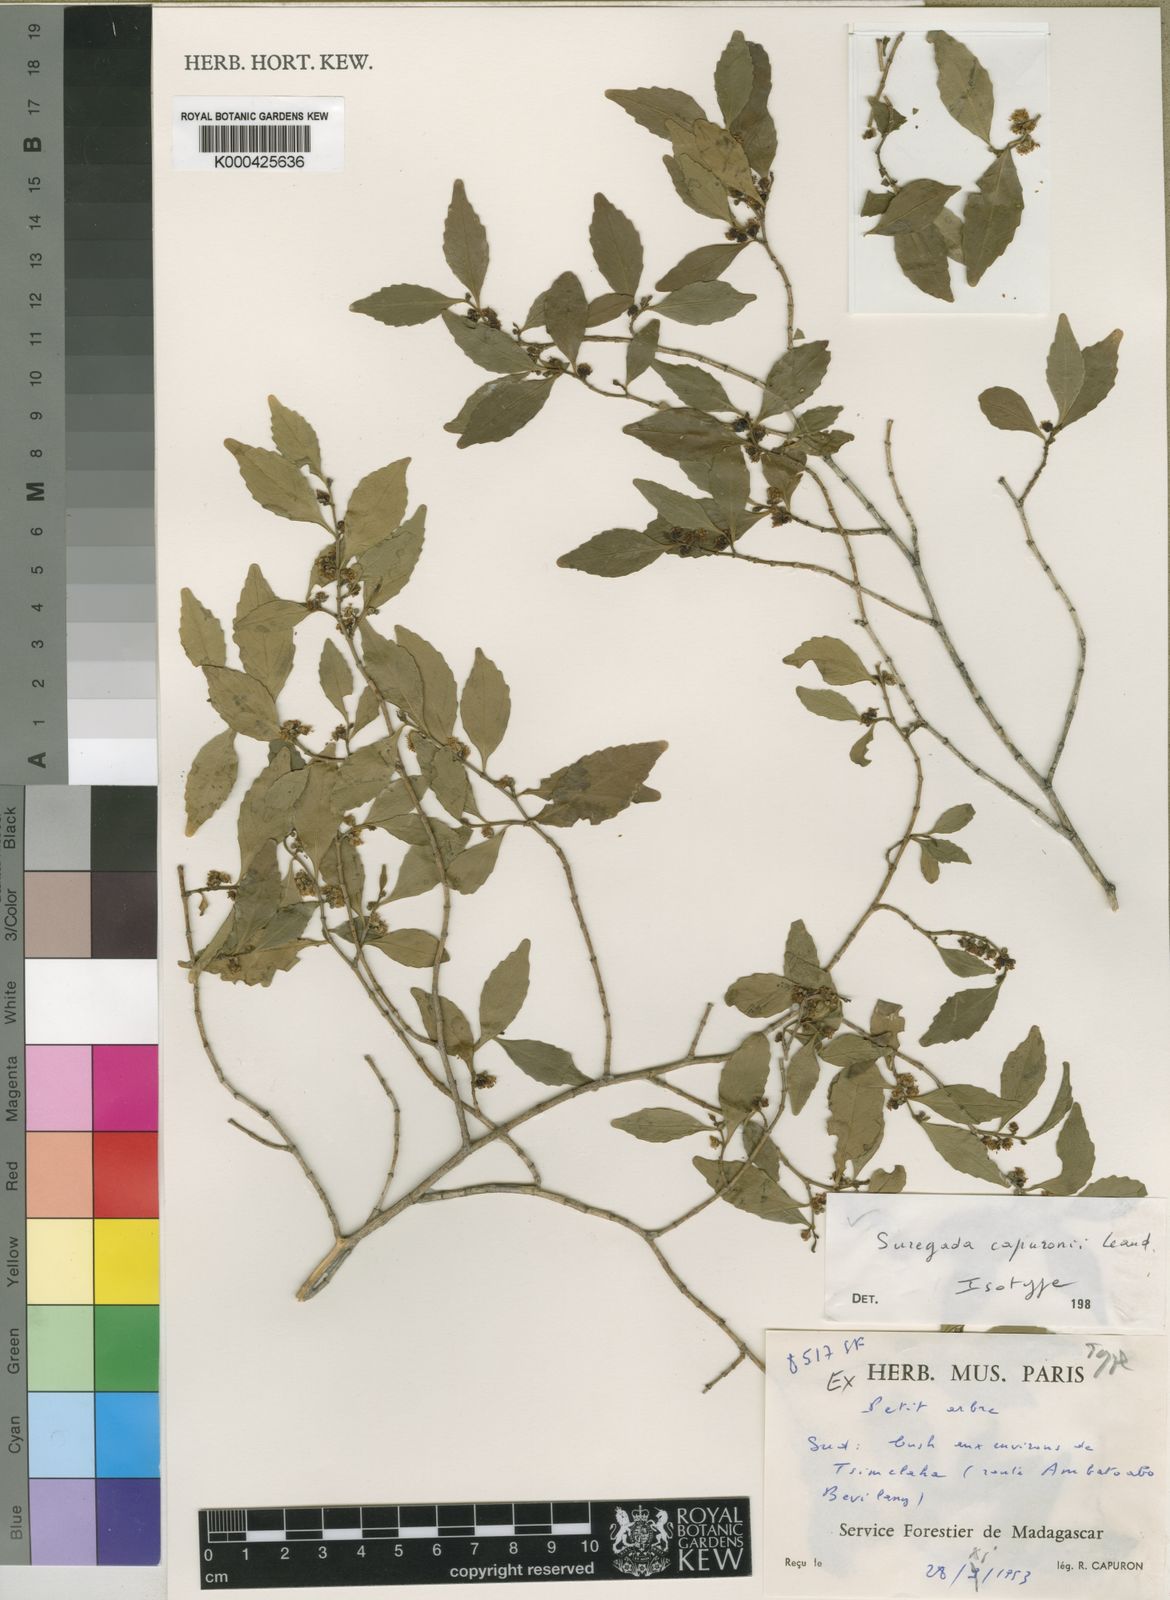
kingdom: Plantae
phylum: Tracheophyta
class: Magnoliopsida
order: Malpighiales
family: Euphorbiaceae
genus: Suregada
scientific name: Suregada capuronii
